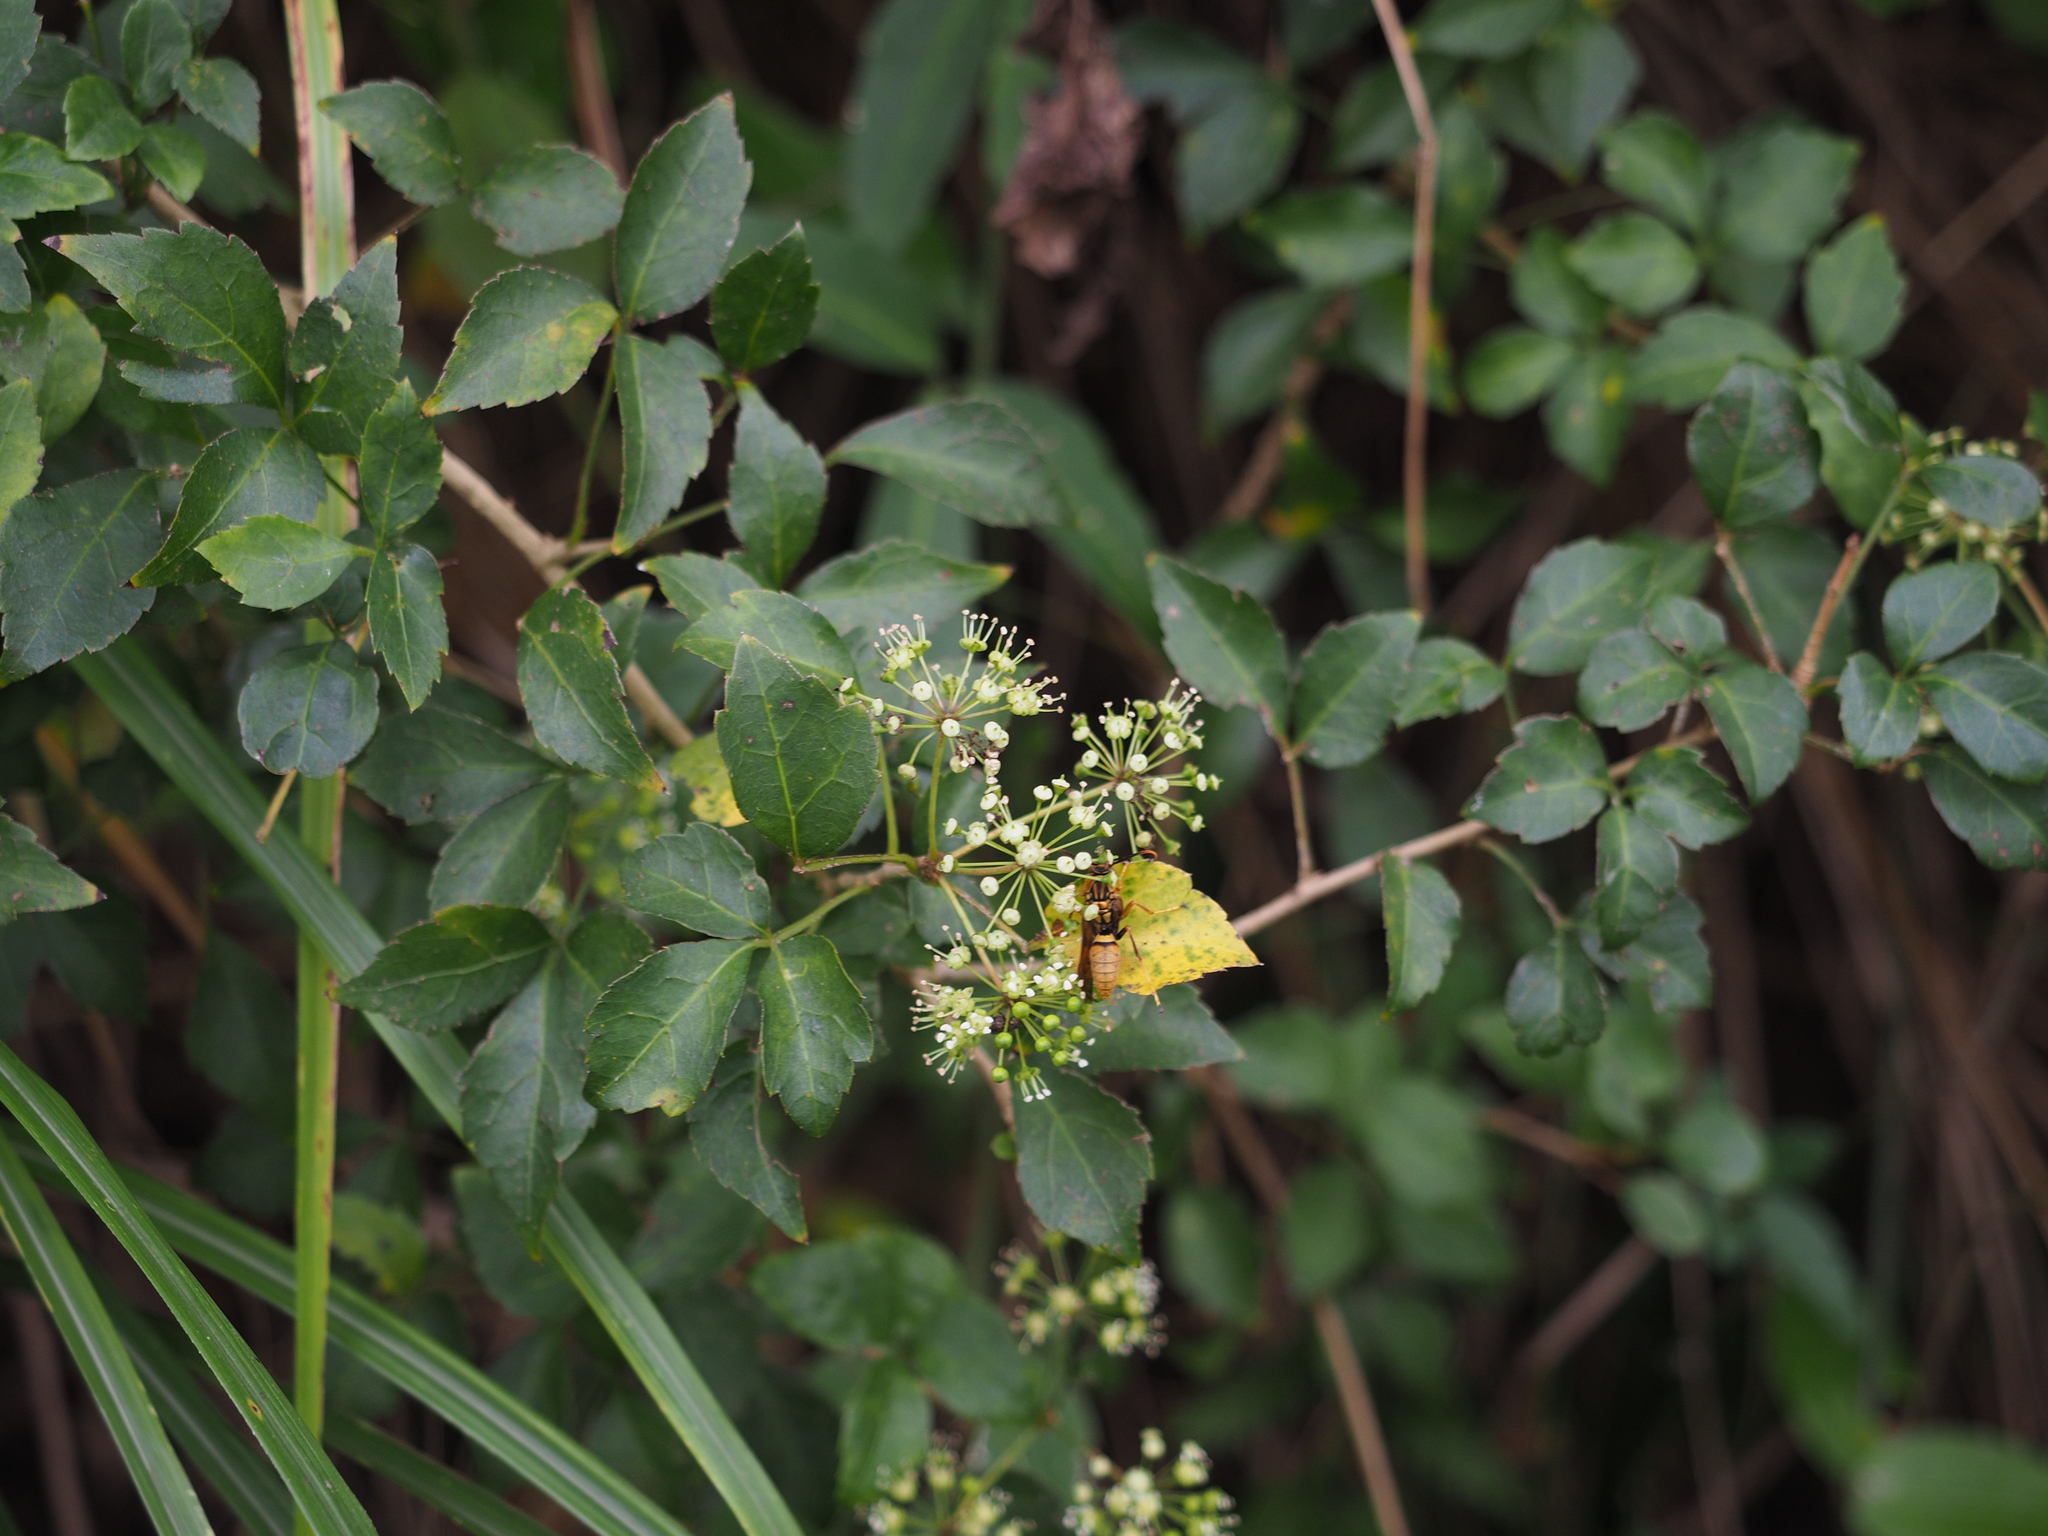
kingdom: Plantae
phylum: Tracheophyta
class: Magnoliopsida
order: Apiales
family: Araliaceae
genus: Eleutherococcus
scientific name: Eleutherococcus trifoliatus
